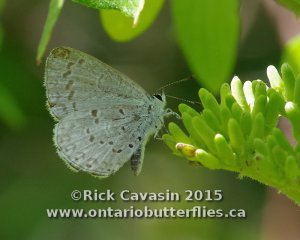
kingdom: Animalia
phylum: Arthropoda
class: Insecta
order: Lepidoptera
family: Lycaenidae
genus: Cyaniris
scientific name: Cyaniris neglecta
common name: Summer Azure
